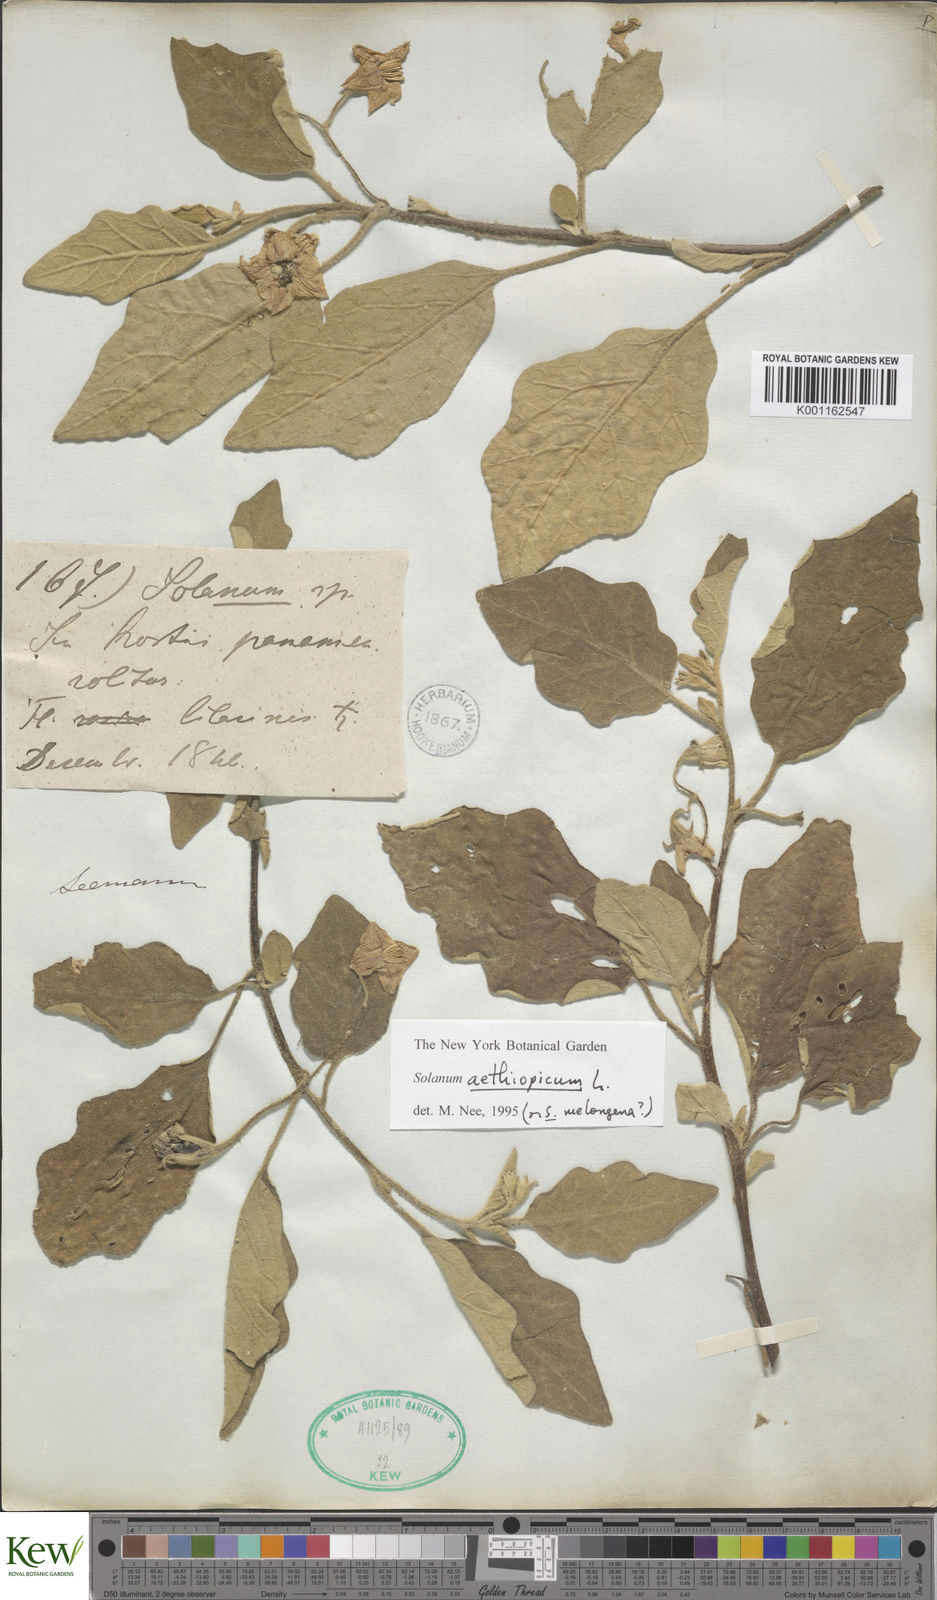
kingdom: Plantae
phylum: Tracheophyta
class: Magnoliopsida
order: Solanales
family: Solanaceae
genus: Solanum
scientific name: Solanum aethiopicum
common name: Gilo
